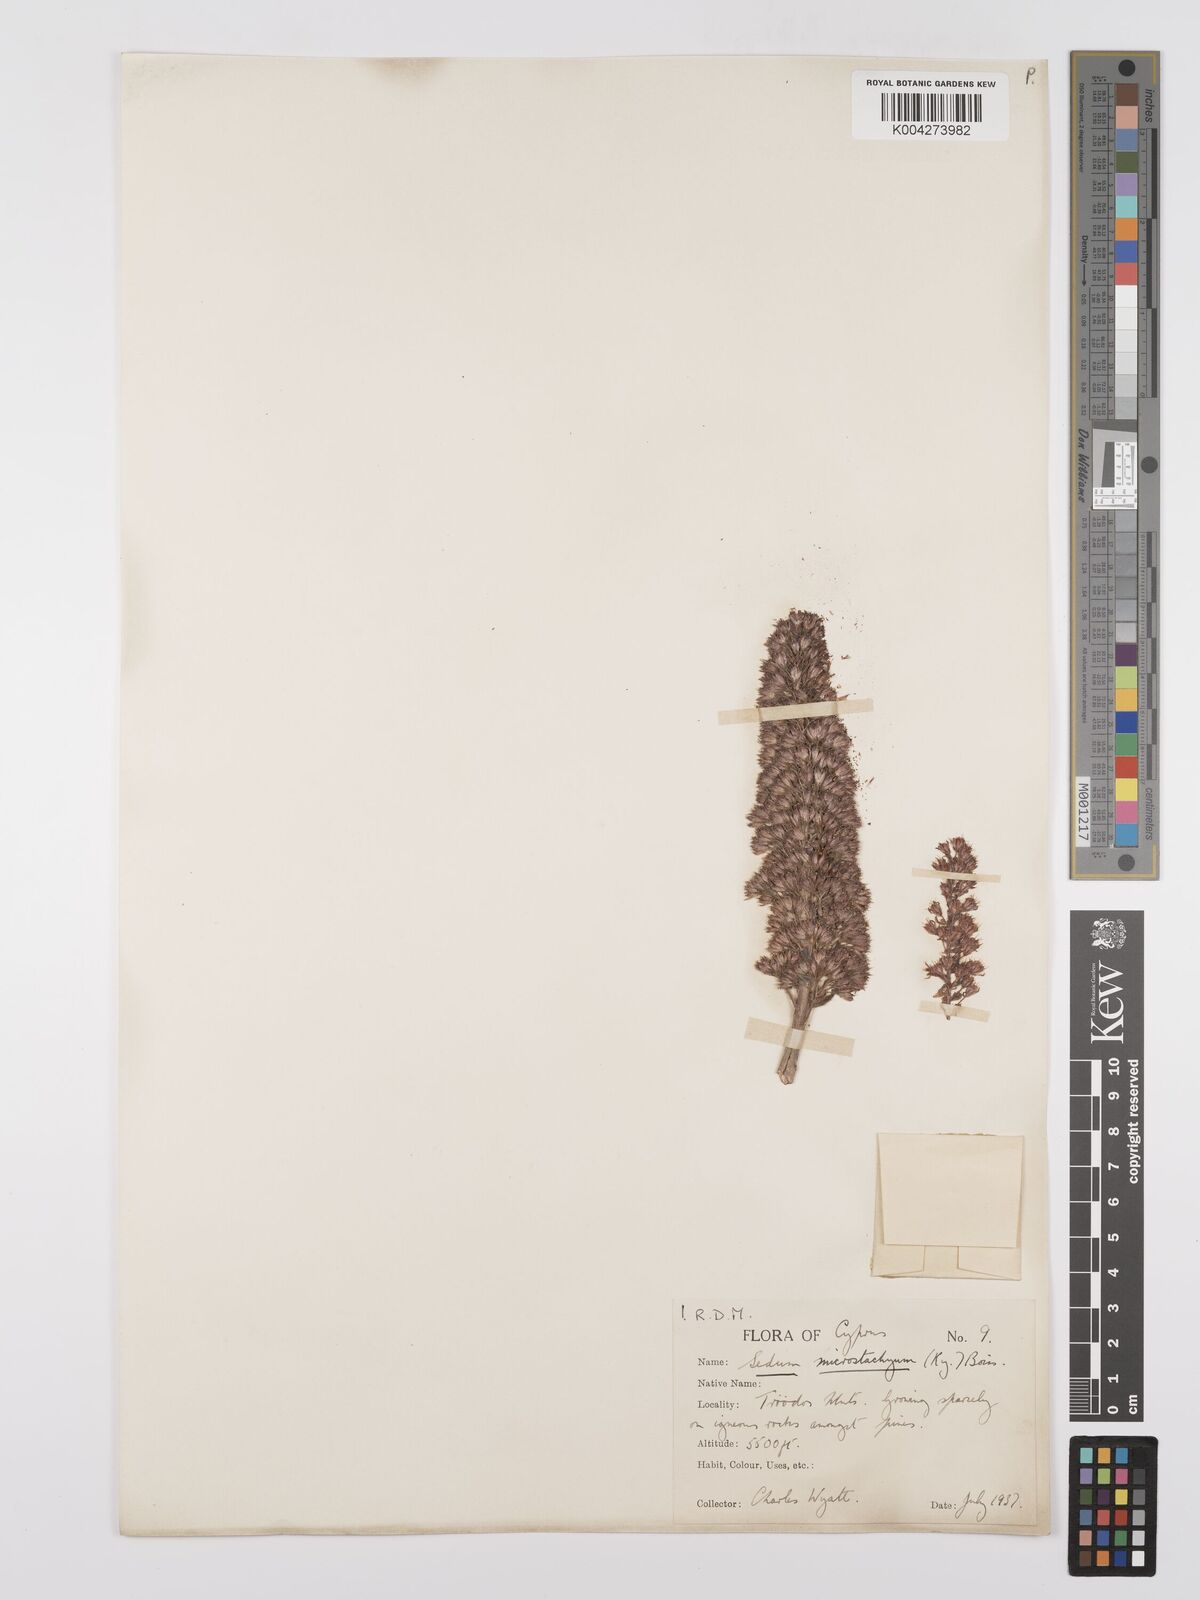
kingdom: Plantae
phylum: Tracheophyta
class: Magnoliopsida
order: Saxifragales
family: Crassulaceae
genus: Sedum
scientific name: Sedum microstachyum
